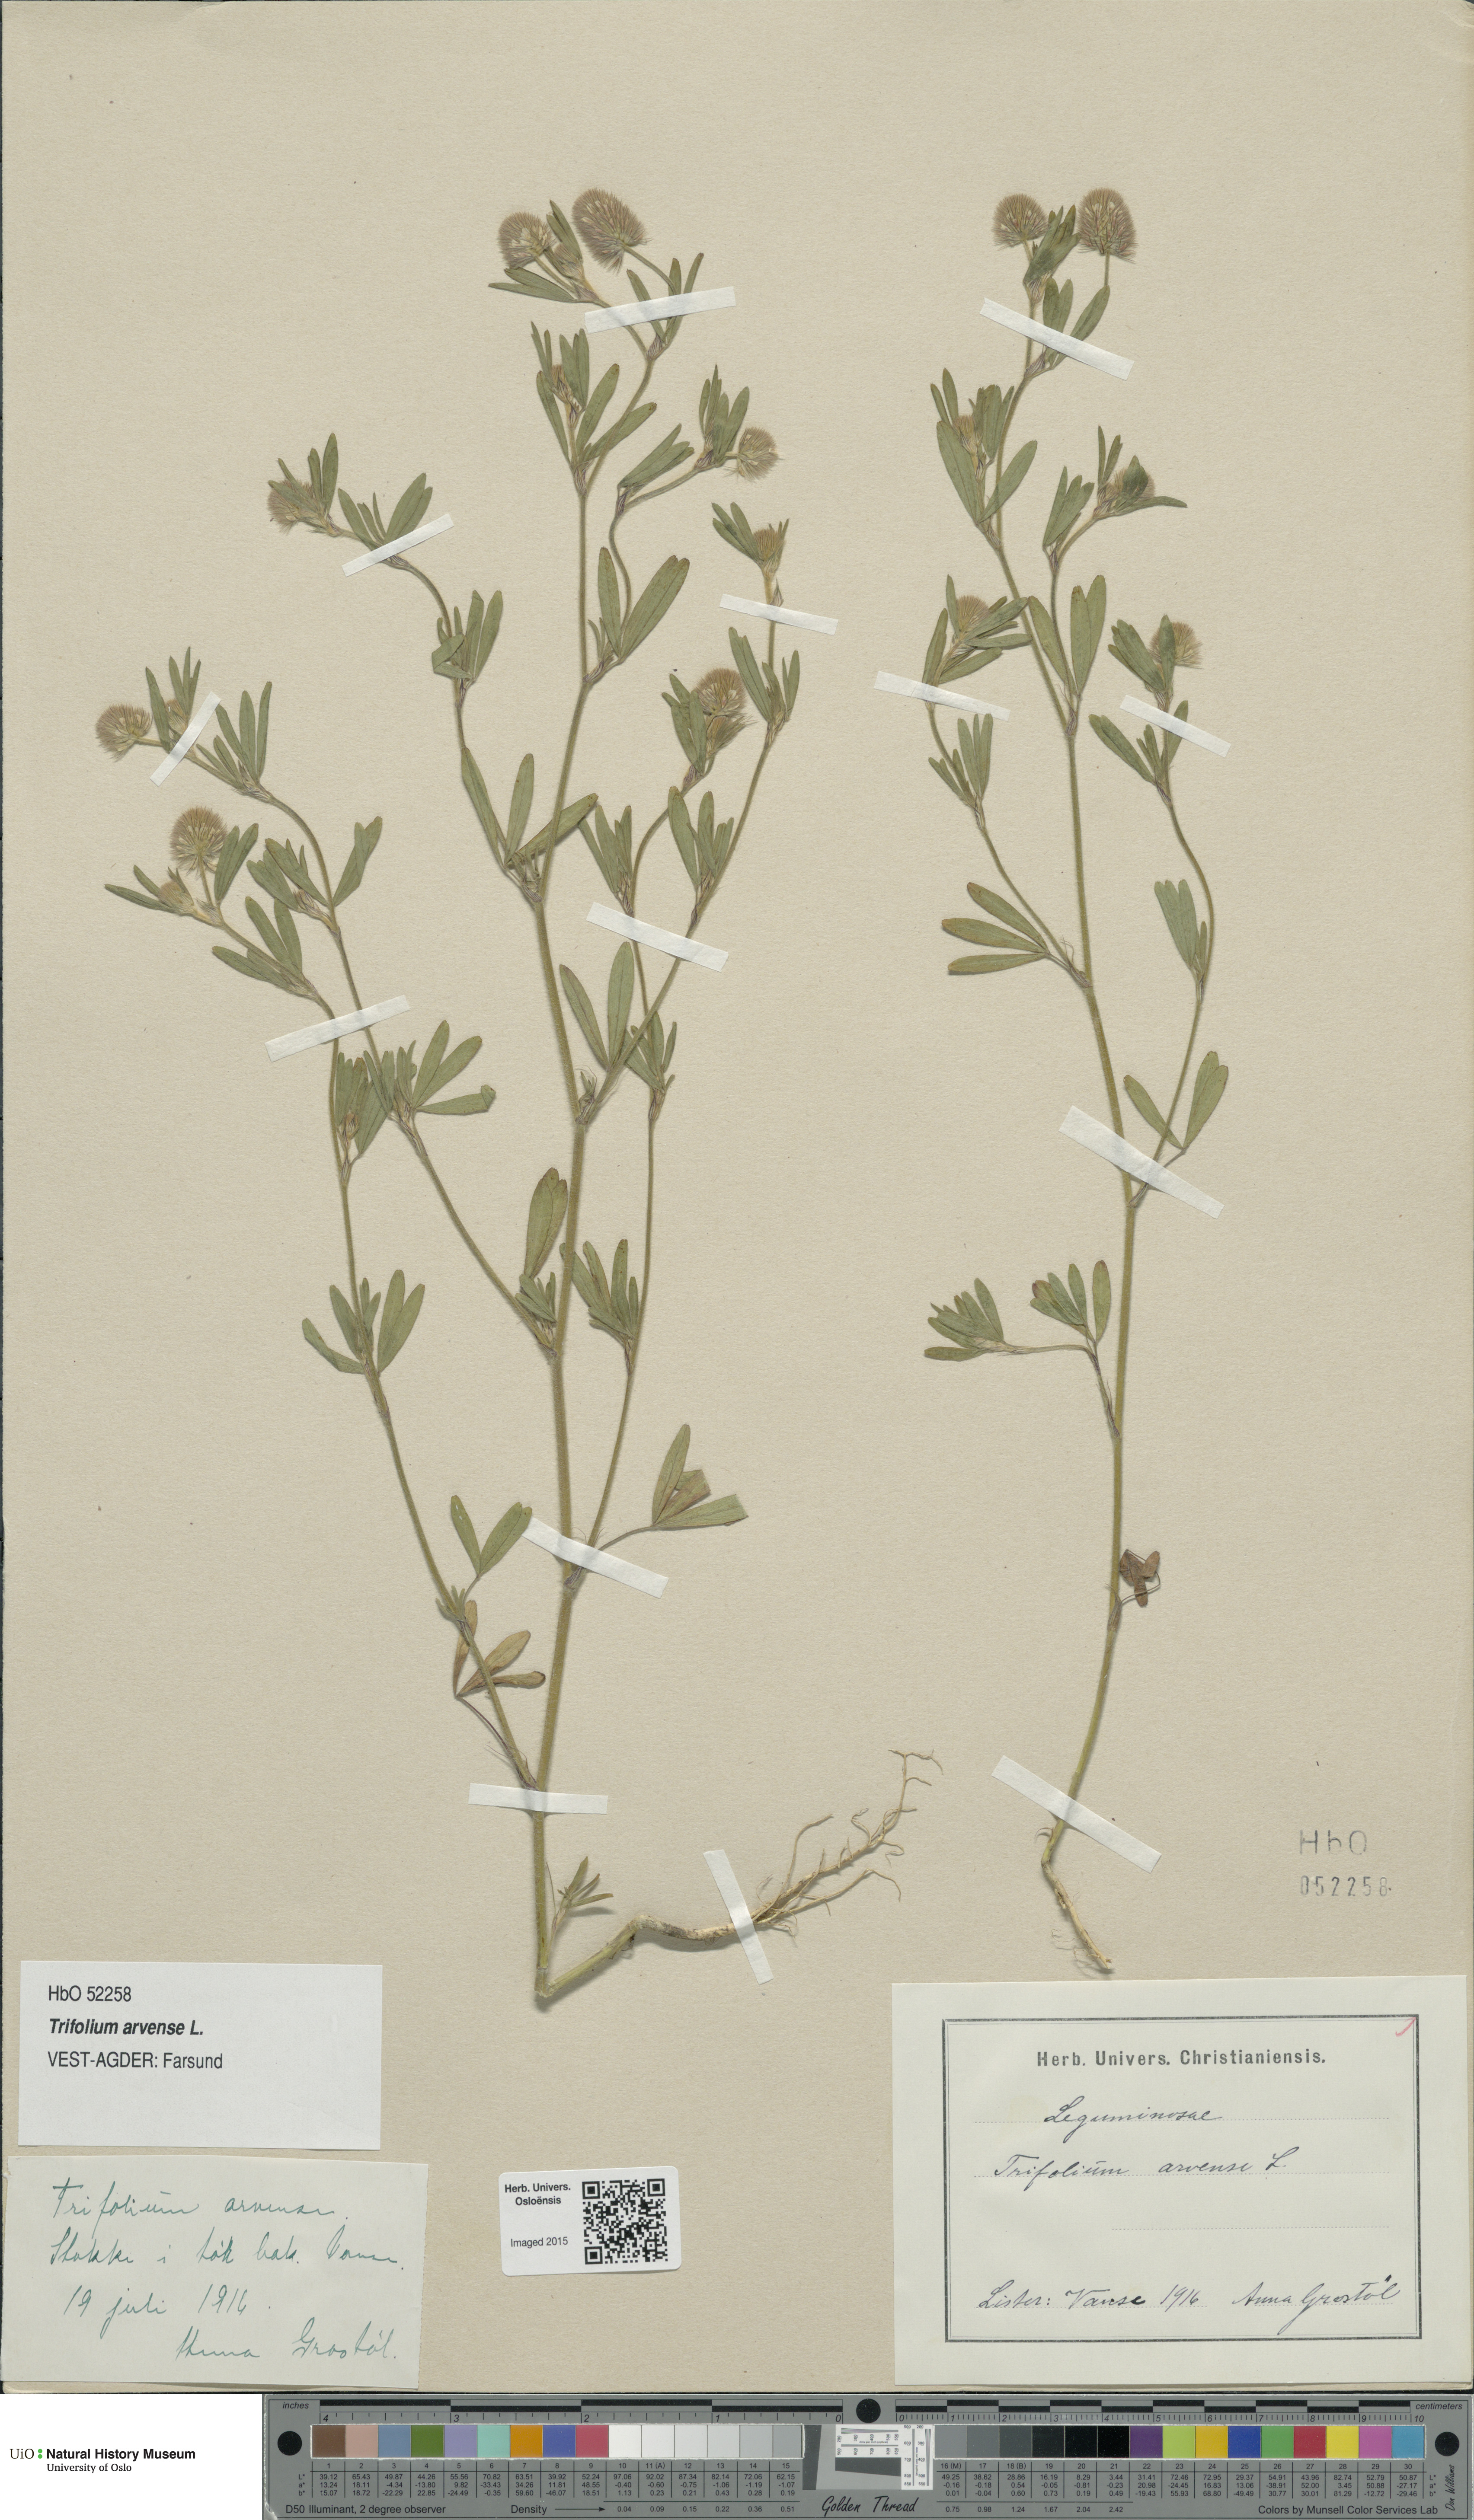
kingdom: Plantae
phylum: Tracheophyta
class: Magnoliopsida
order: Fabales
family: Fabaceae
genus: Trifolium
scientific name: Trifolium arvense
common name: Hare's-foot clover
